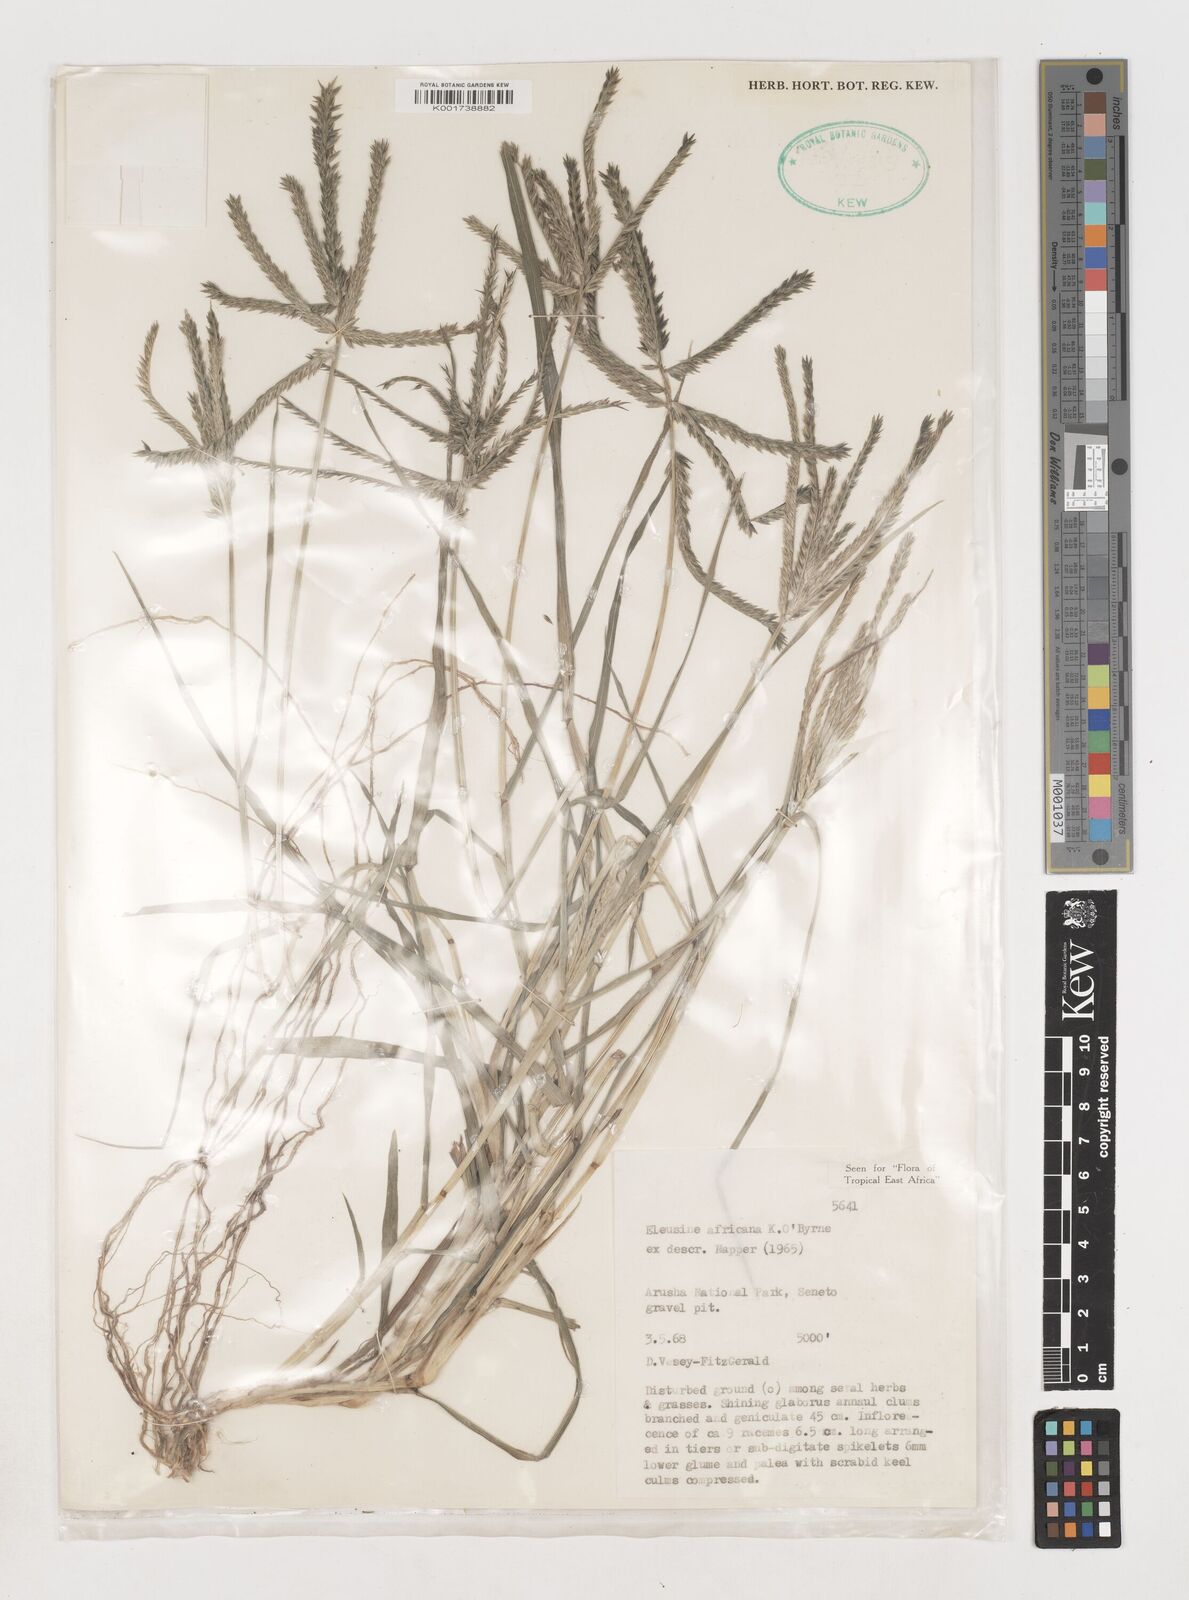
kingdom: Plantae
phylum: Tracheophyta
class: Liliopsida
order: Poales
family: Poaceae
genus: Eleusine
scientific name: Eleusine africana
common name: Wild african finger millet
